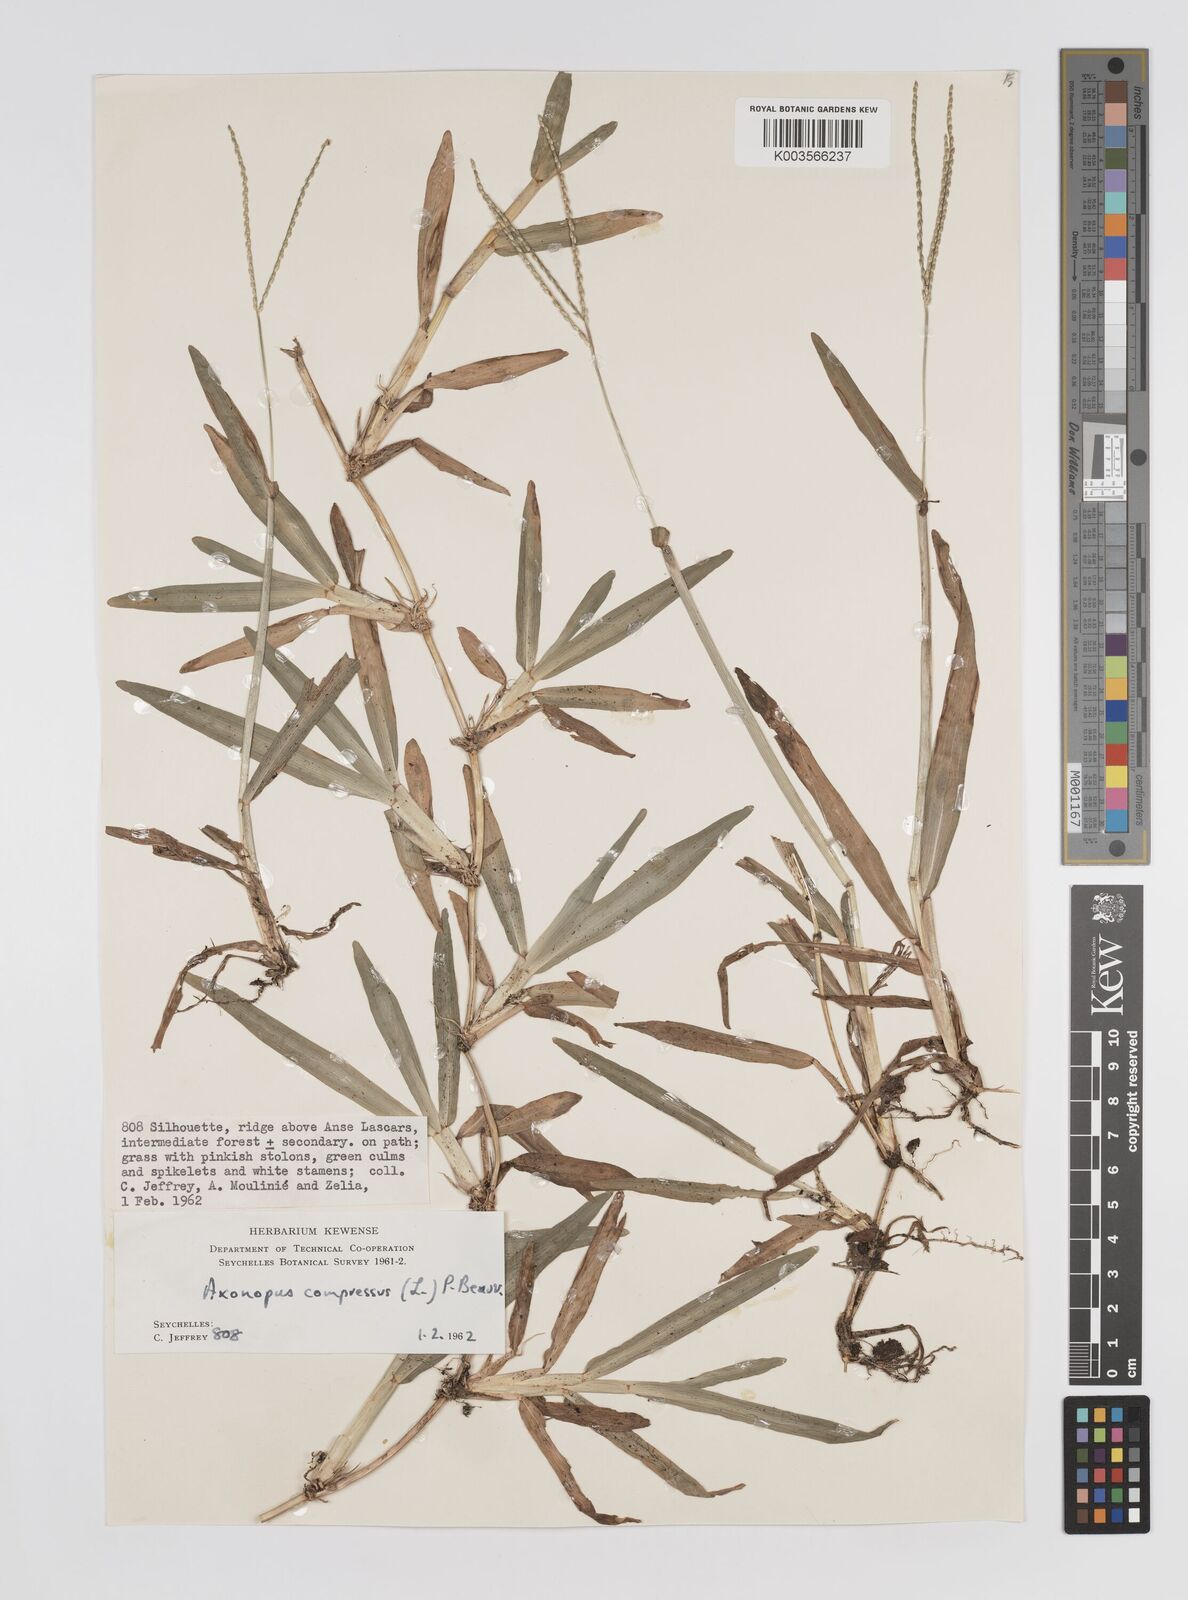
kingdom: Plantae
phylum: Tracheophyta
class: Liliopsida
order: Poales
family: Poaceae
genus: Axonopus
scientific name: Axonopus compressus
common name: American carpet grass
